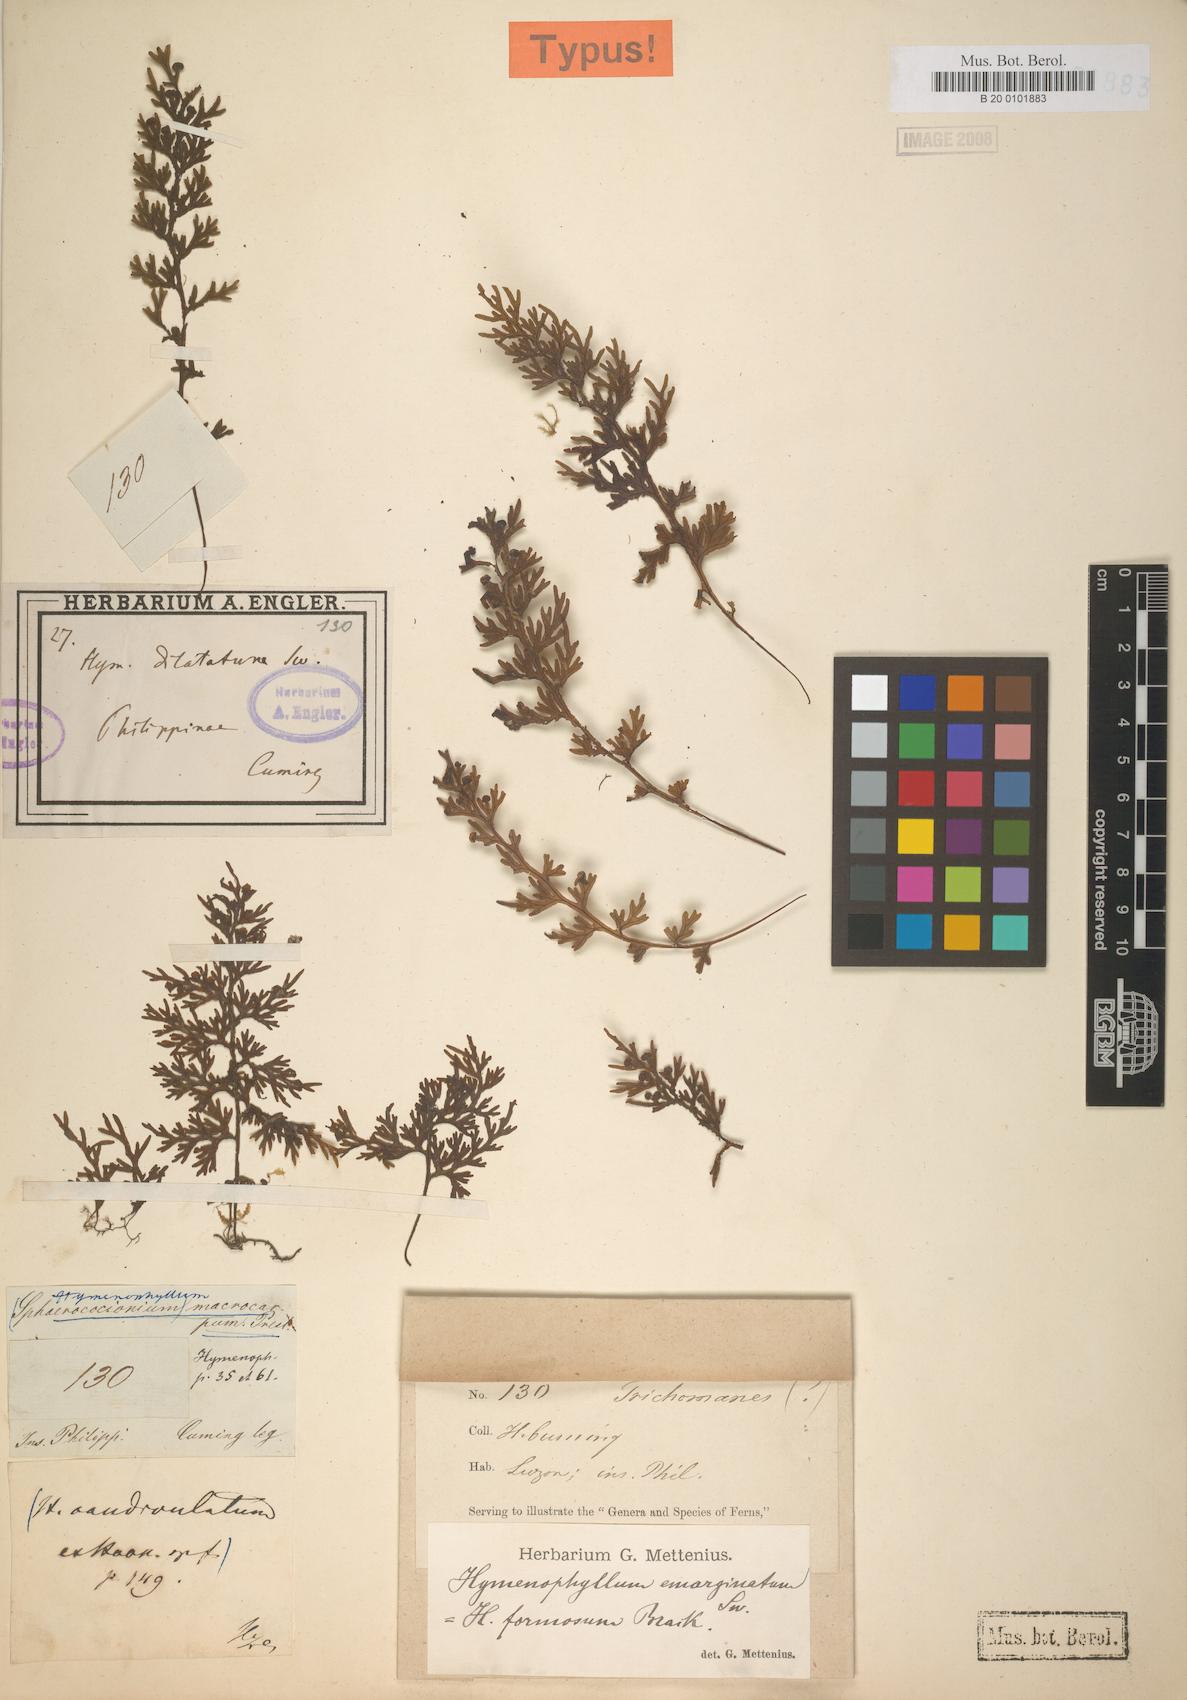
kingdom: Plantae
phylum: Tracheophyta
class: Polypodiopsida
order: Hymenophyllales
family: Hymenophyllaceae
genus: Hymenophyllum
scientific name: Hymenophyllum dilatatum
